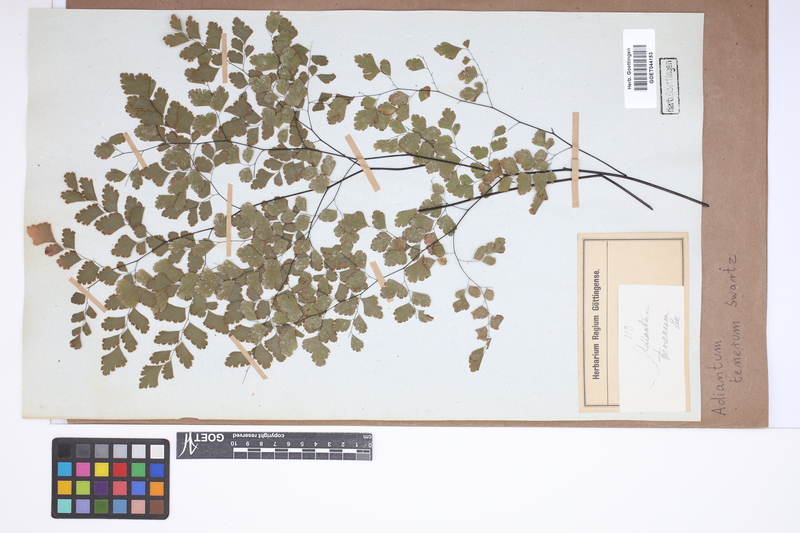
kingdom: Plantae
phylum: Tracheophyta
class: Polypodiopsida
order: Polypodiales
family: Pteridaceae
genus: Adiantum
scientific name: Adiantum tenerum
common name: Fan maidenhair
